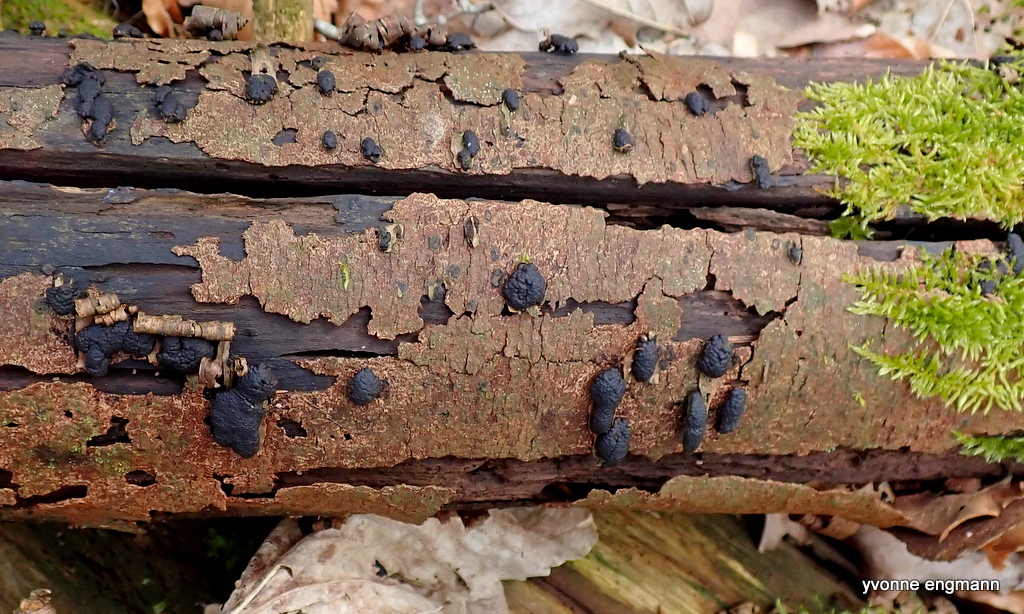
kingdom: Fungi
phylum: Ascomycota
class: Sordariomycetes
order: Xylariales
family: Hypoxylaceae
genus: Jackrogersella
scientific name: Jackrogersella multiformis
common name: foranderlig kulbær
